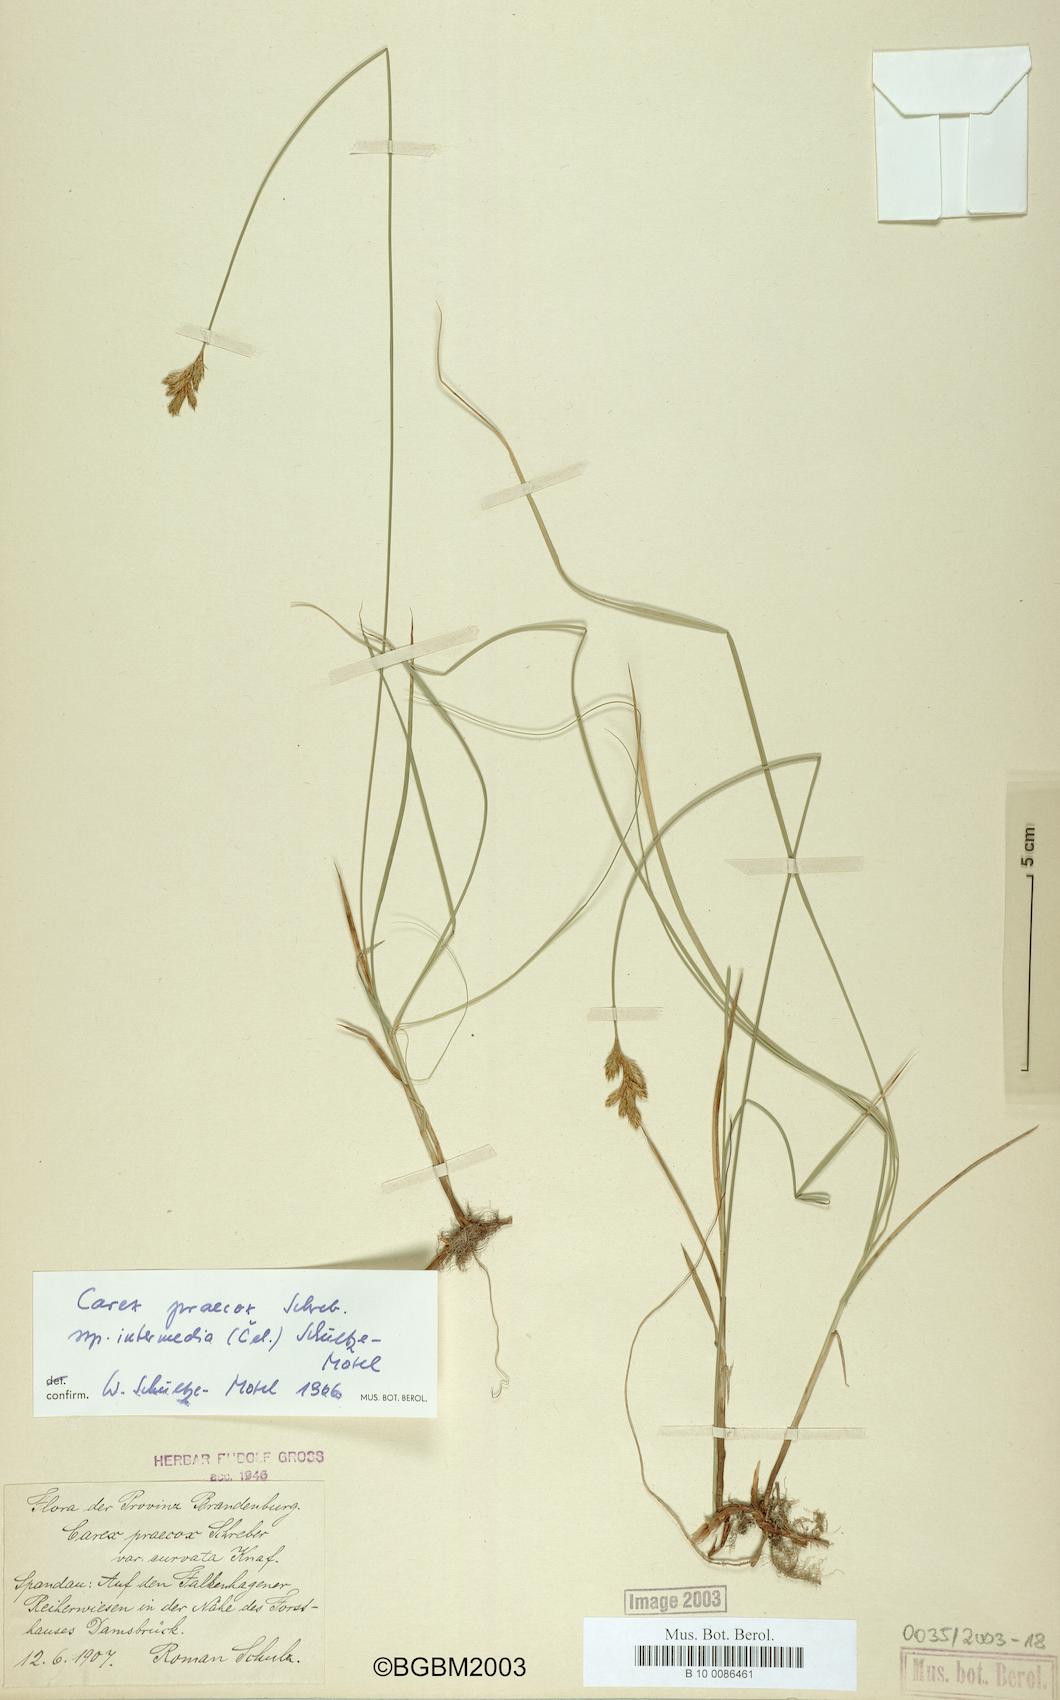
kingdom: Plantae
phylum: Tracheophyta
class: Liliopsida
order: Poales
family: Cyperaceae
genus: Carex
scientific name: Carex curvata
